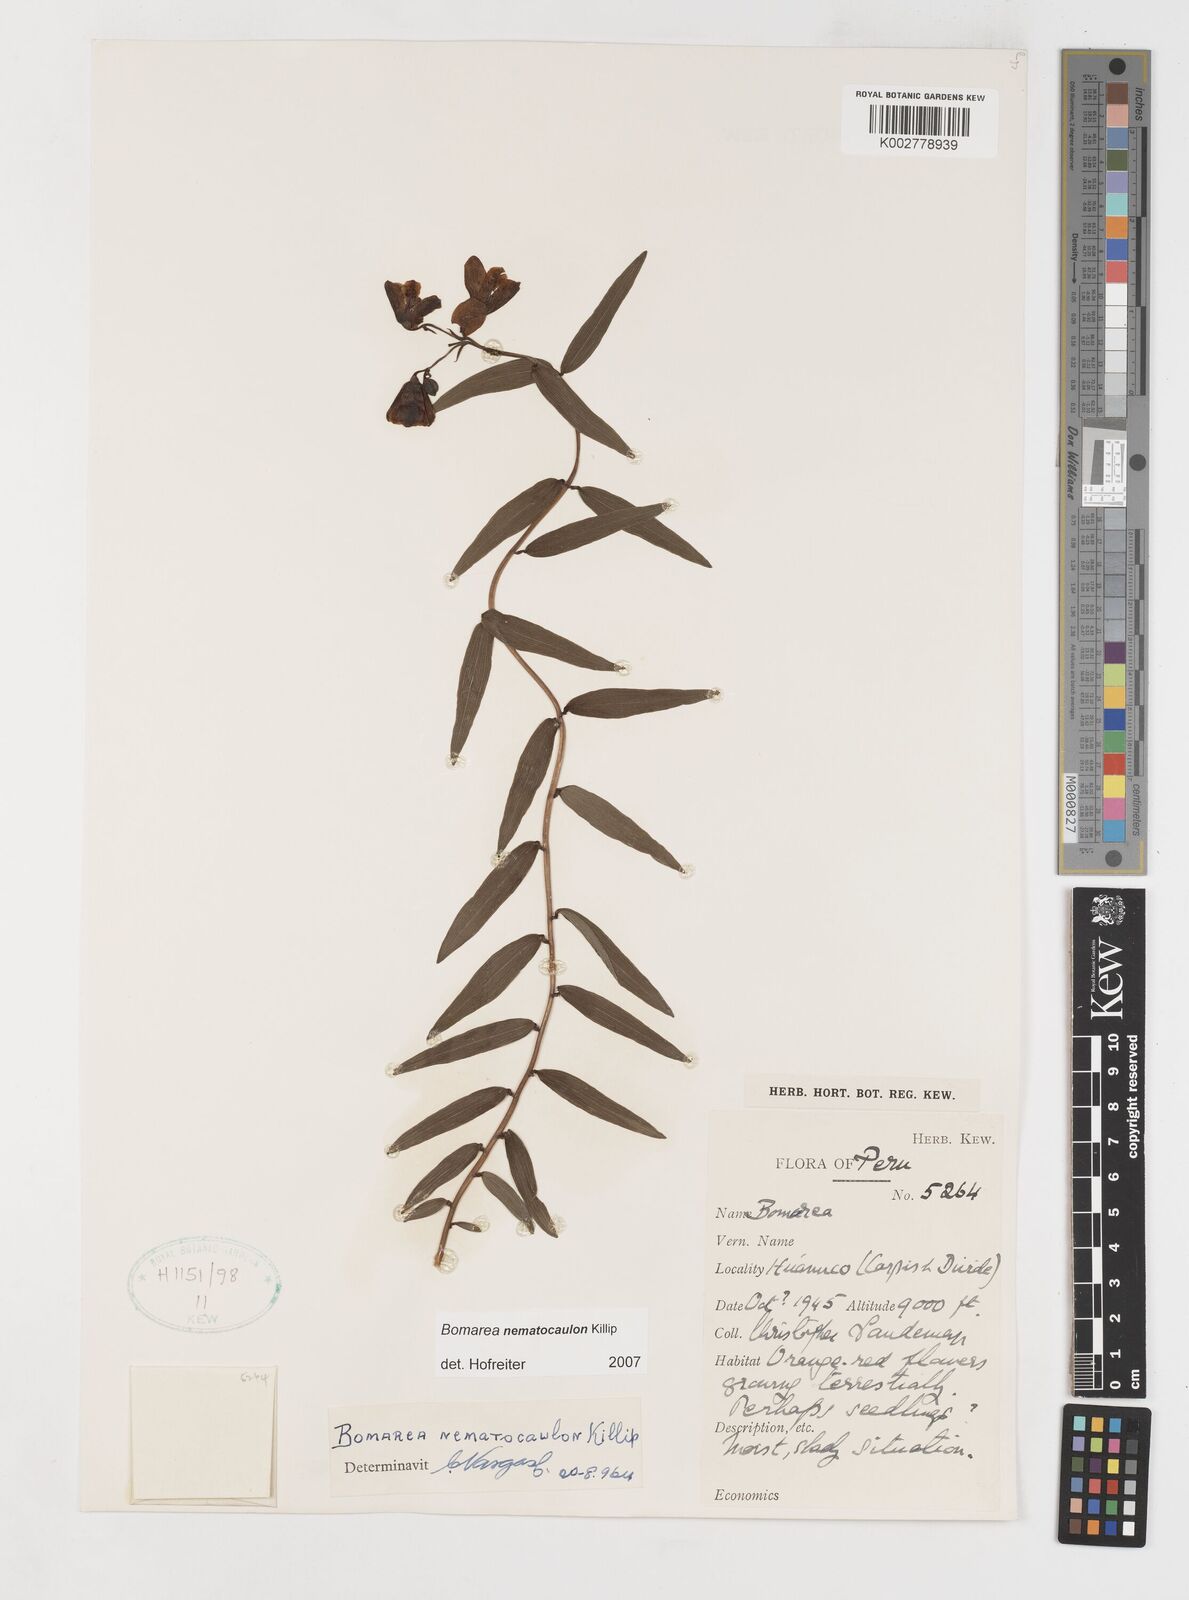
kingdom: Plantae
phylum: Tracheophyta
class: Liliopsida
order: Liliales
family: Alstroemeriaceae
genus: Bomarea
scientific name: Bomarea nematocaulon
